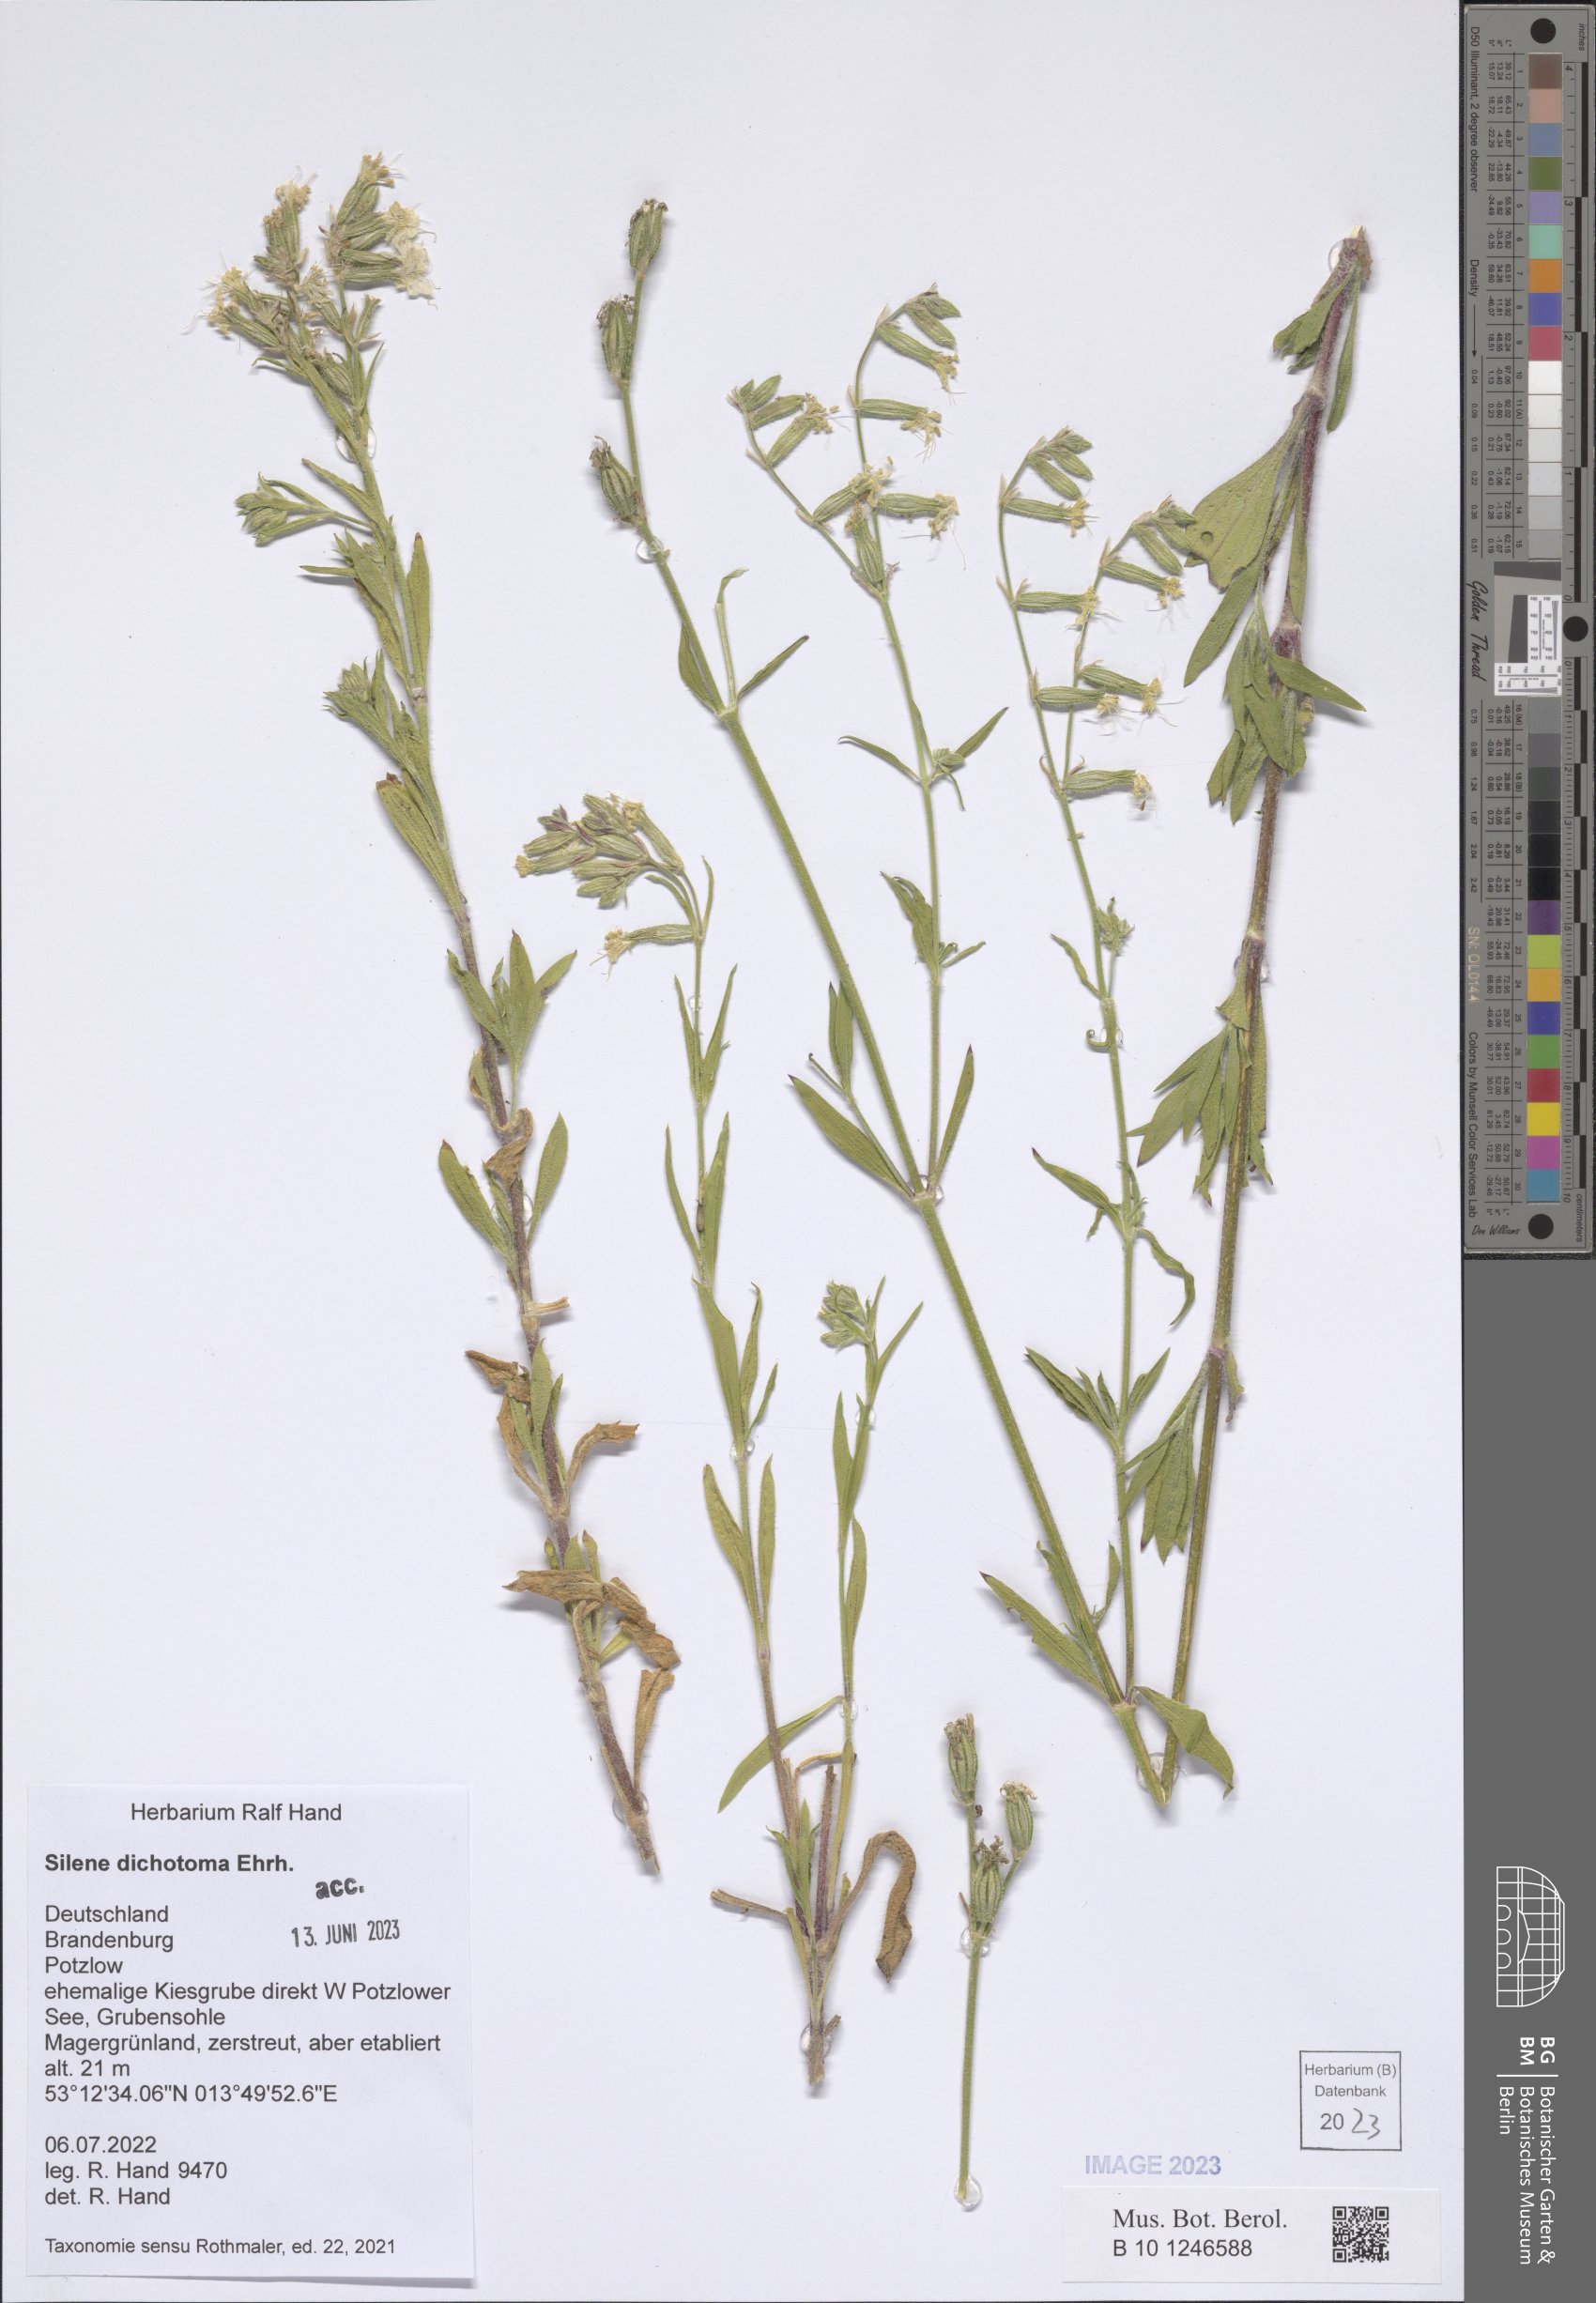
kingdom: Plantae
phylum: Tracheophyta
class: Magnoliopsida
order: Caryophyllales
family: Caryophyllaceae
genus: Silene
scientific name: Silene dichotoma
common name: Forked catchfly
